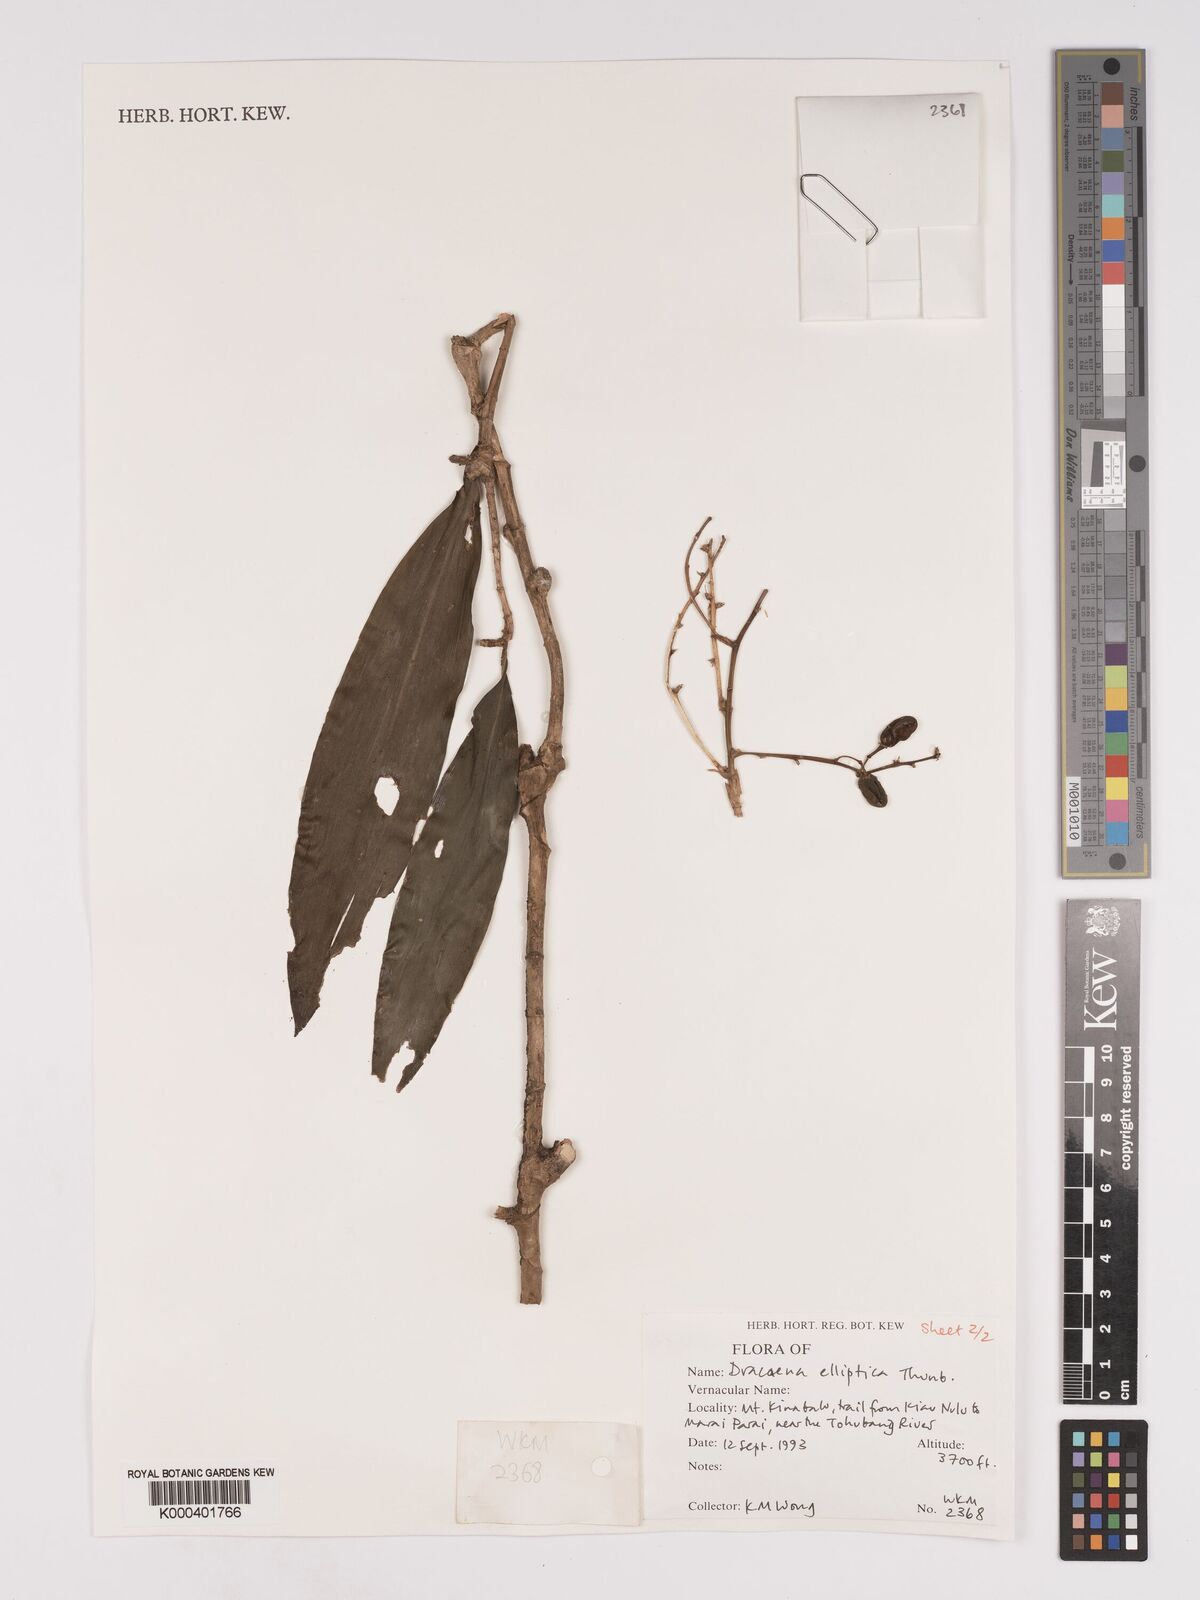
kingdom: Plantae
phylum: Tracheophyta
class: Liliopsida
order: Asparagales
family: Asparagaceae
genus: Dracaena
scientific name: Dracaena elliptica
